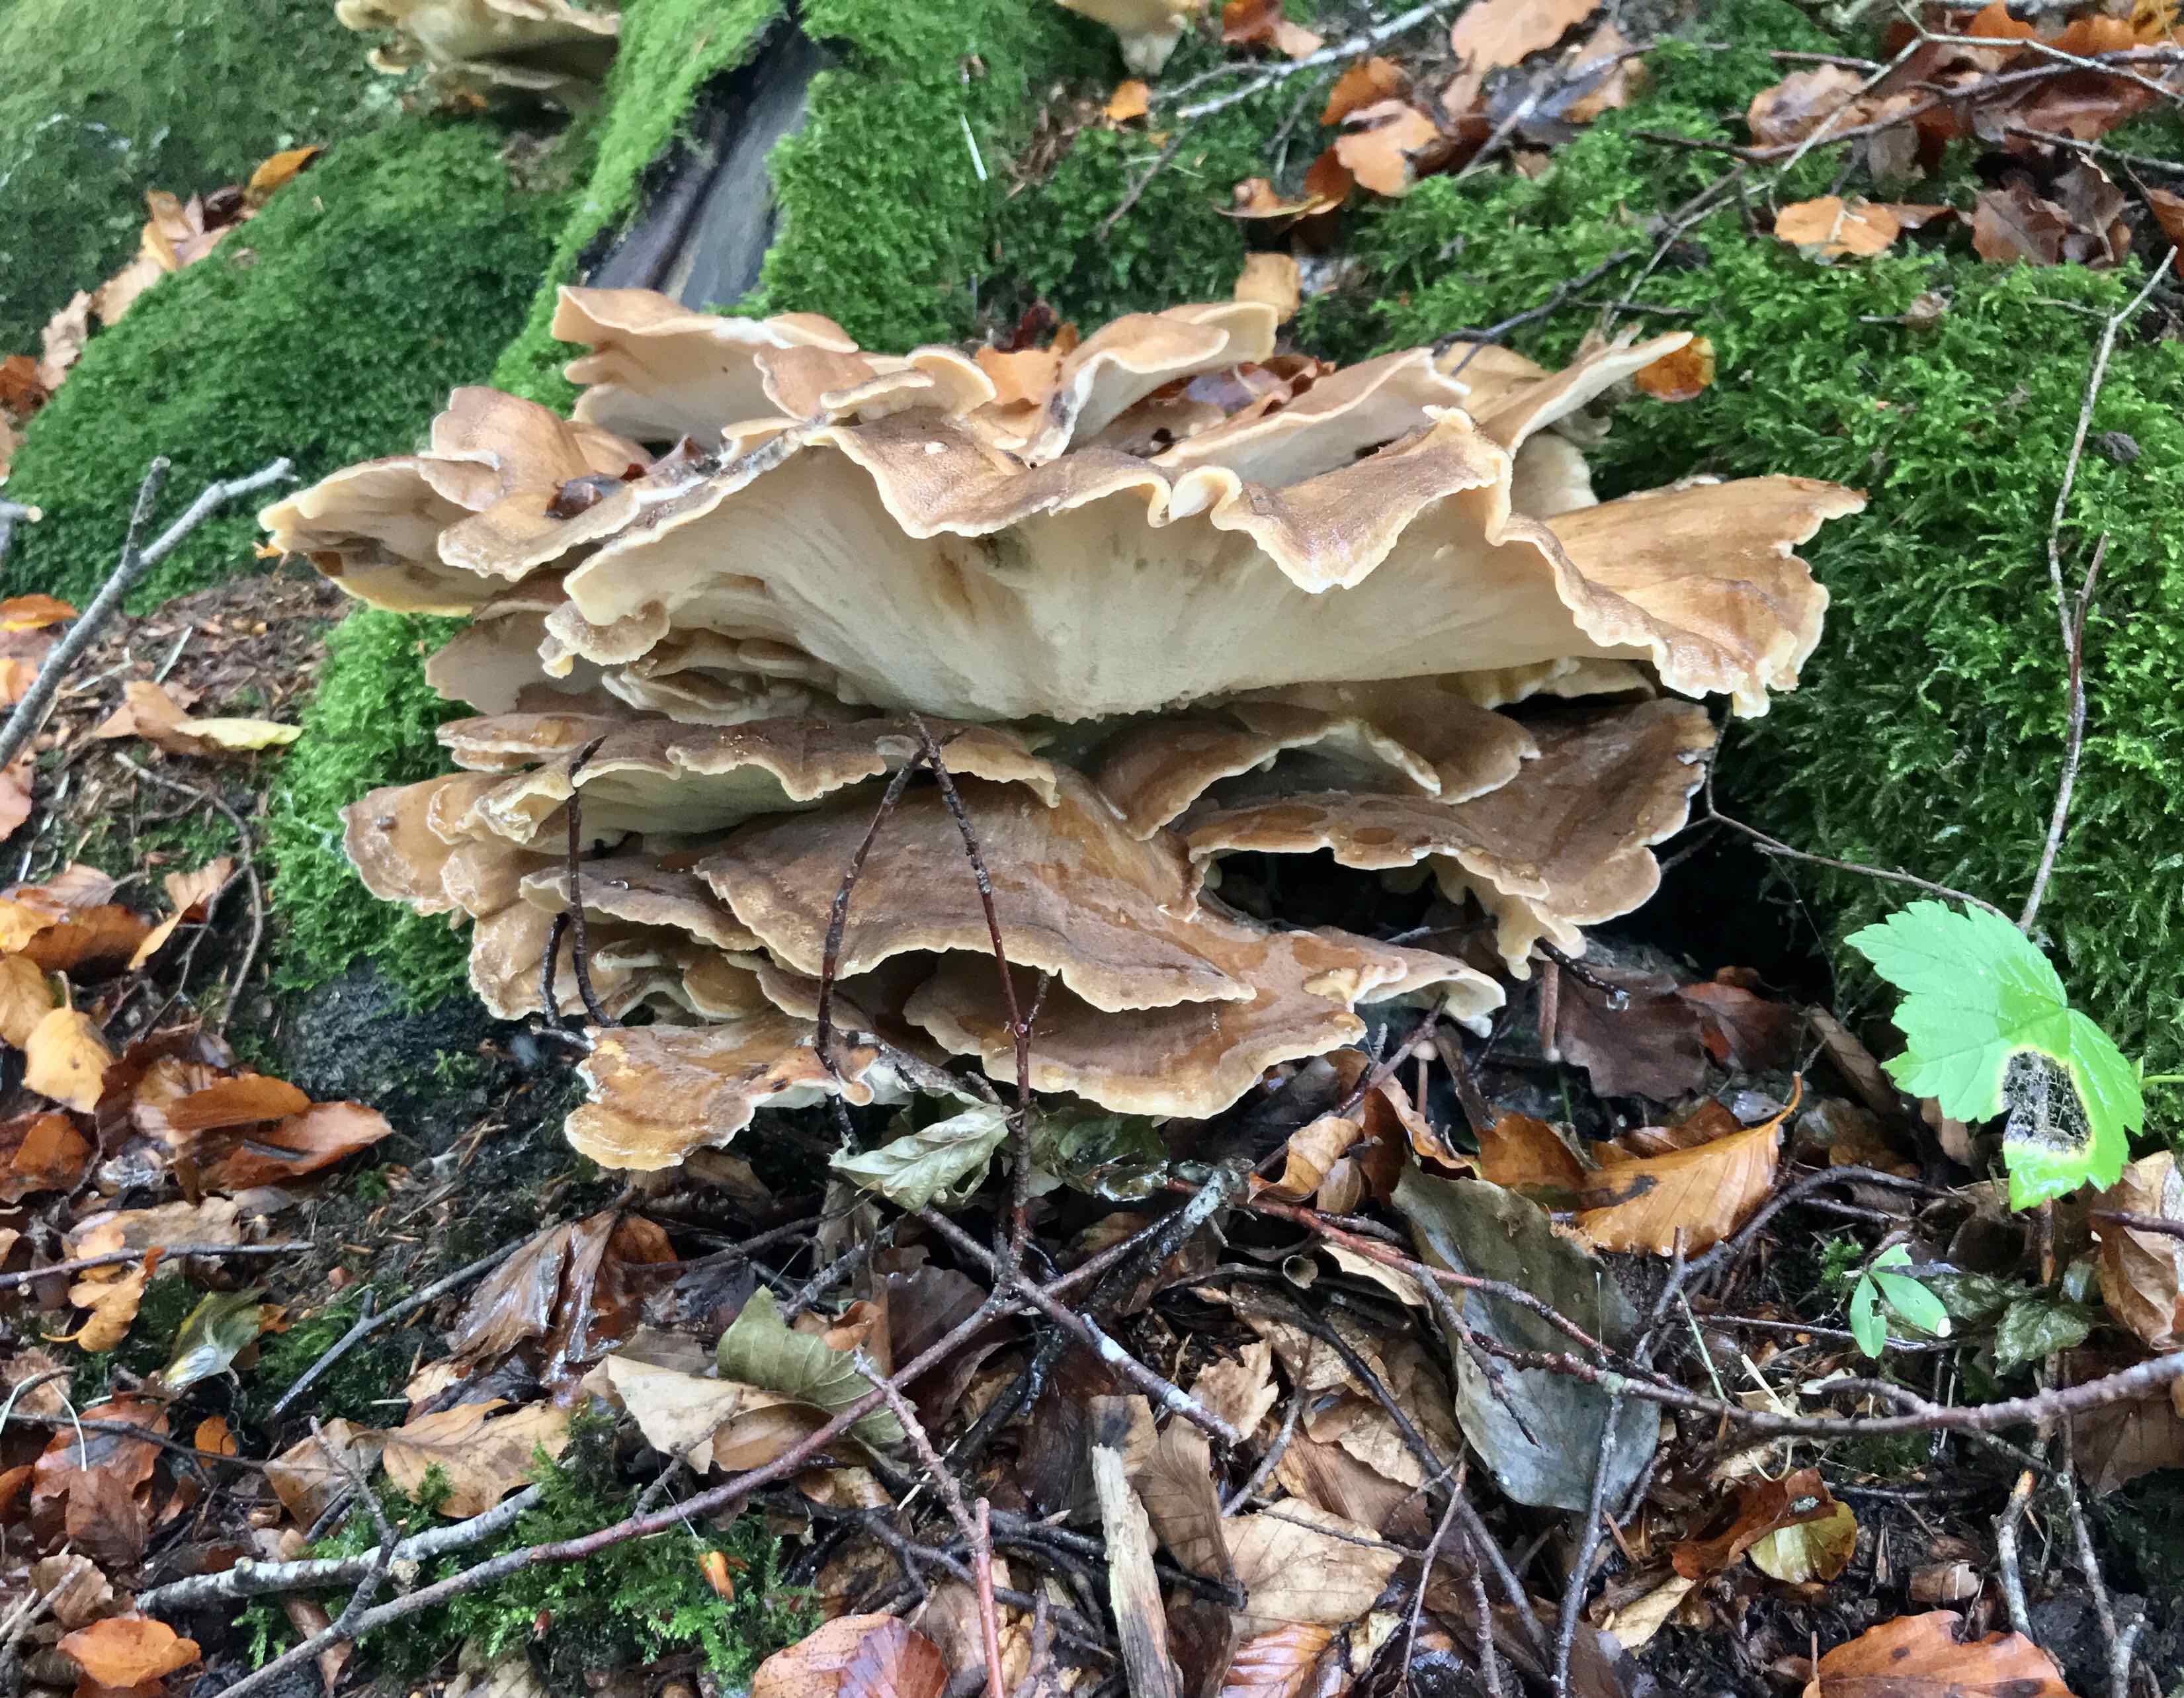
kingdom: Fungi
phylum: Basidiomycota
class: Agaricomycetes
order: Polyporales
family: Meripilaceae
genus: Meripilus
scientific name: Meripilus giganteus
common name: kæmpeporesvamp
